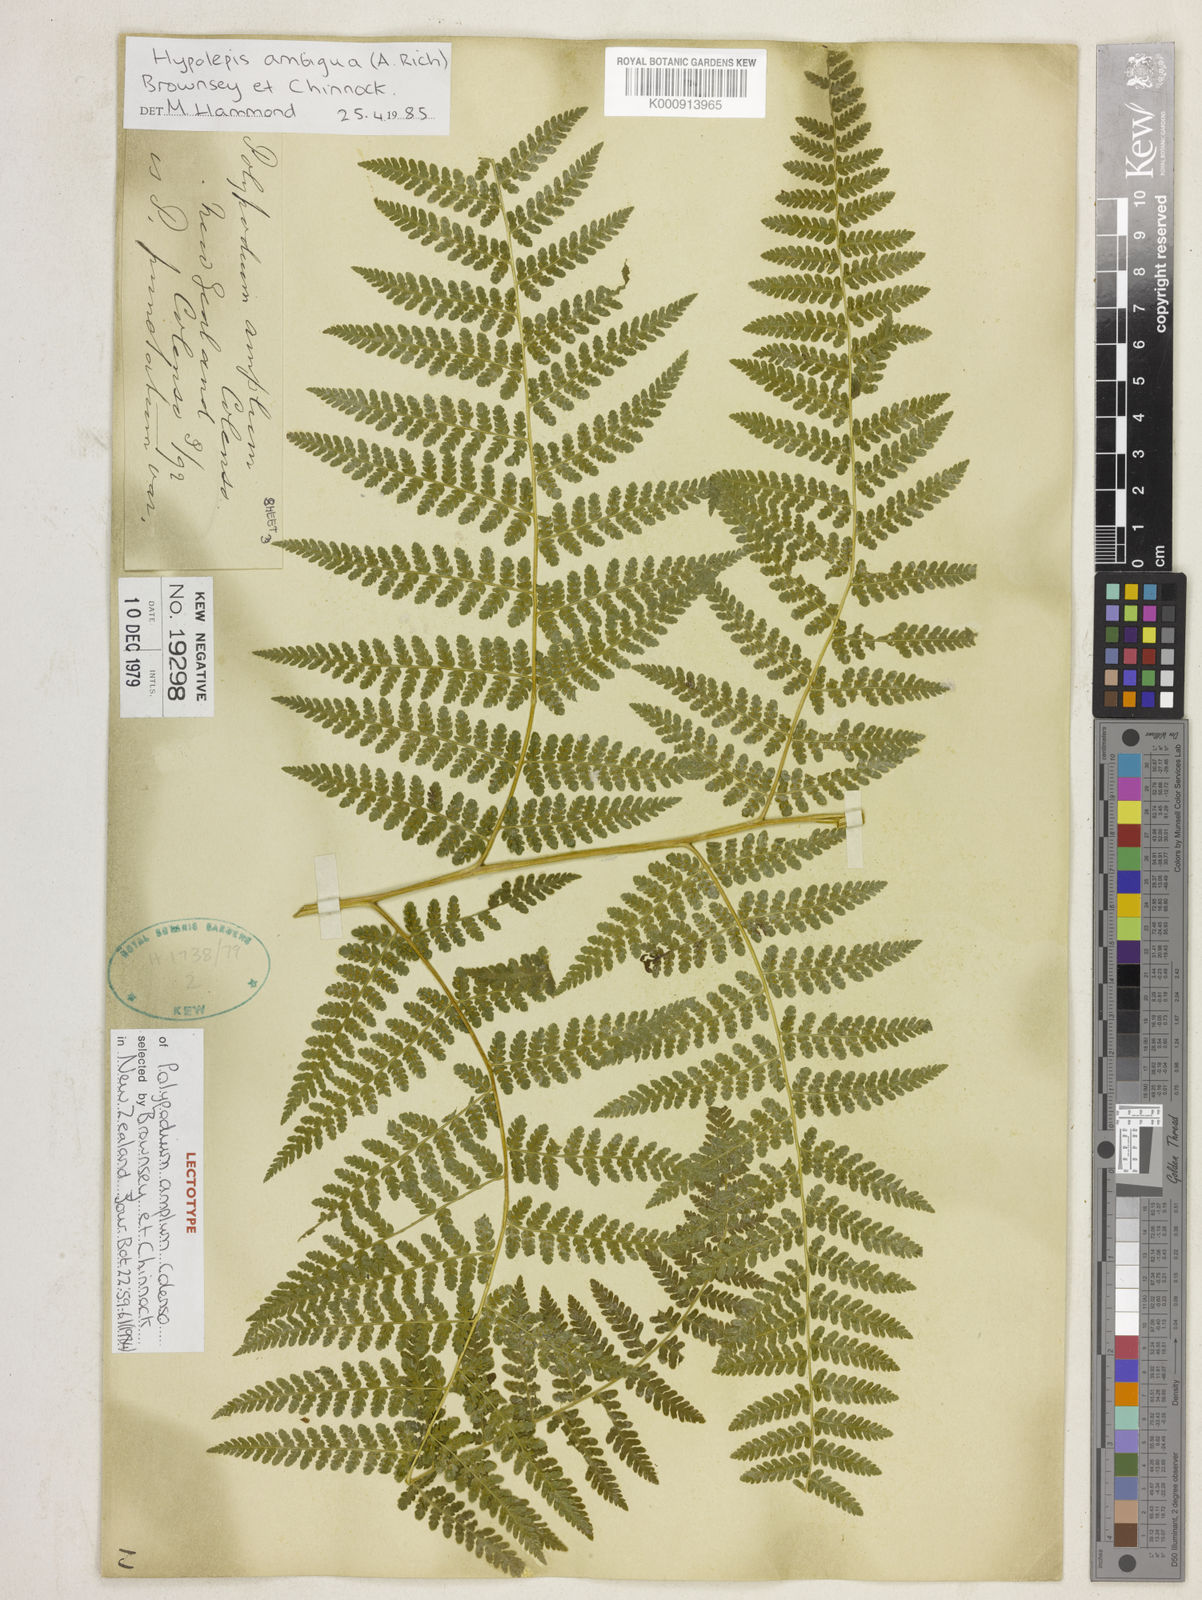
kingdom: Plantae
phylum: Tracheophyta
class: Polypodiopsida
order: Polypodiales
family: Dennstaedtiaceae
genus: Hypolepis
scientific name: Hypolepis ambigua
